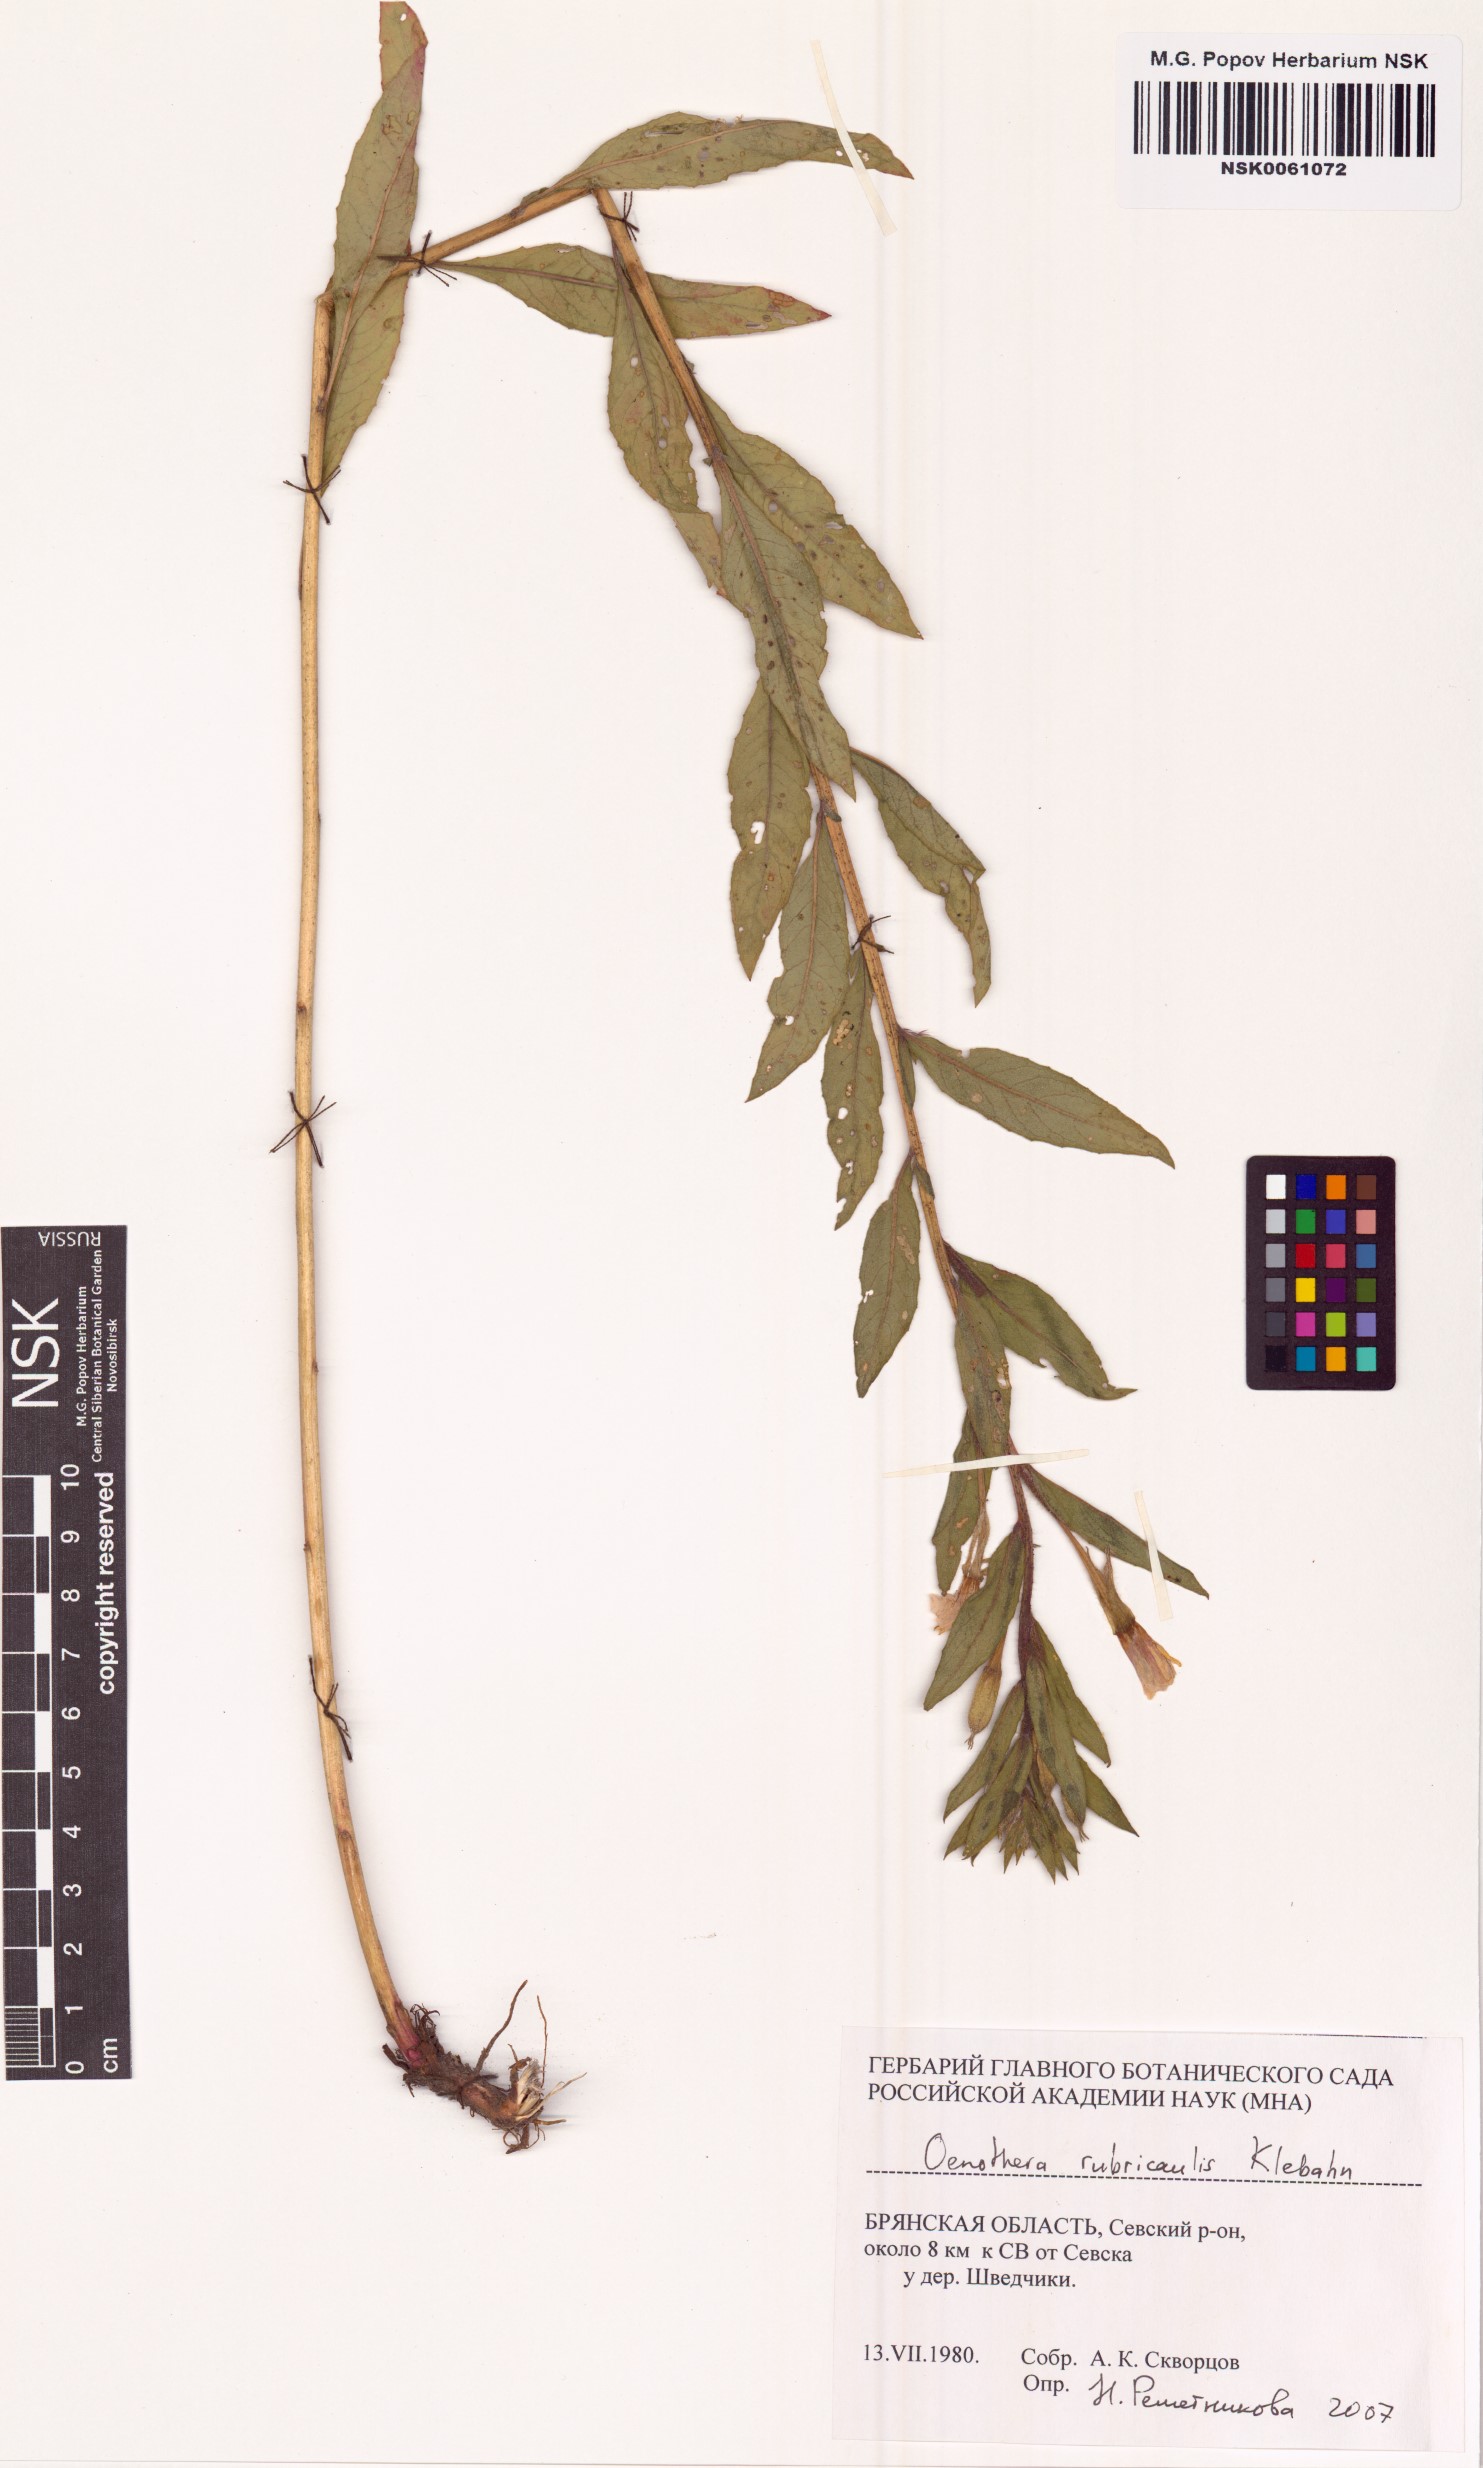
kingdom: Plantae
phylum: Tracheophyta
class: Magnoliopsida
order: Myrtales
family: Onagraceae
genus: Oenothera
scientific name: Oenothera rubricaulis
